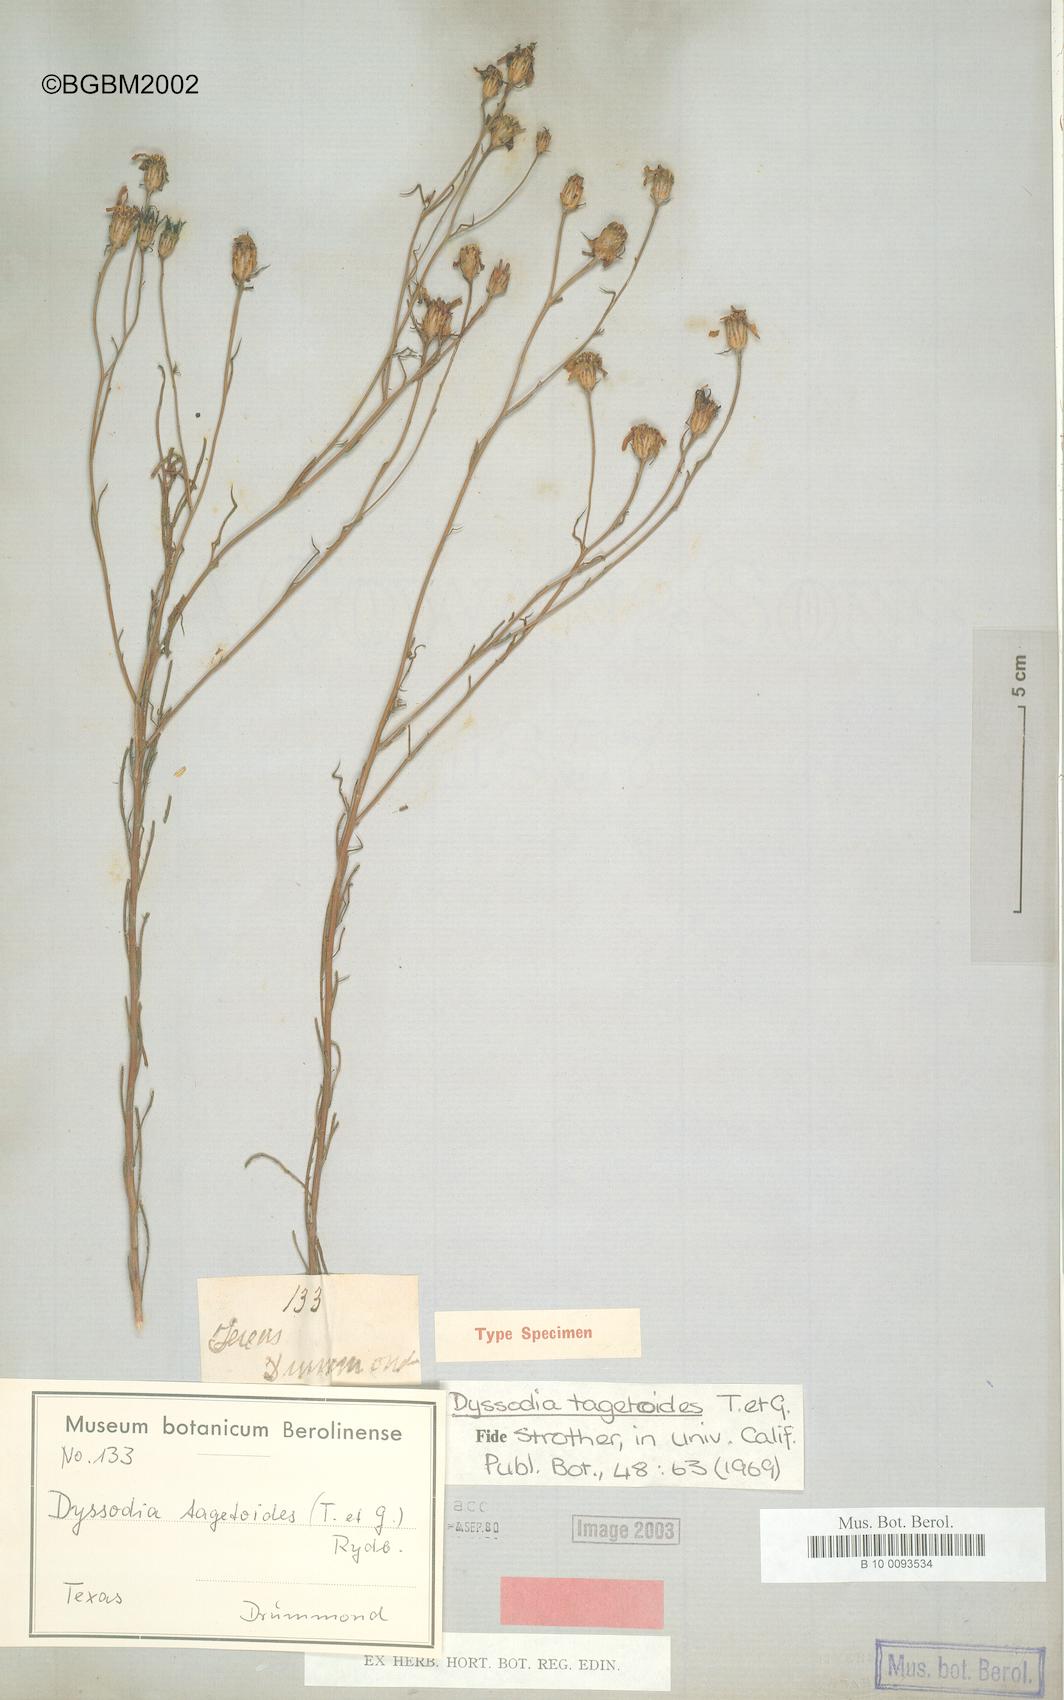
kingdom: Plantae
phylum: Tracheophyta
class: Magnoliopsida
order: Asterales
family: Asteraceae
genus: Dysodiopsis
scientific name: Dysodiopsis tagetoides
